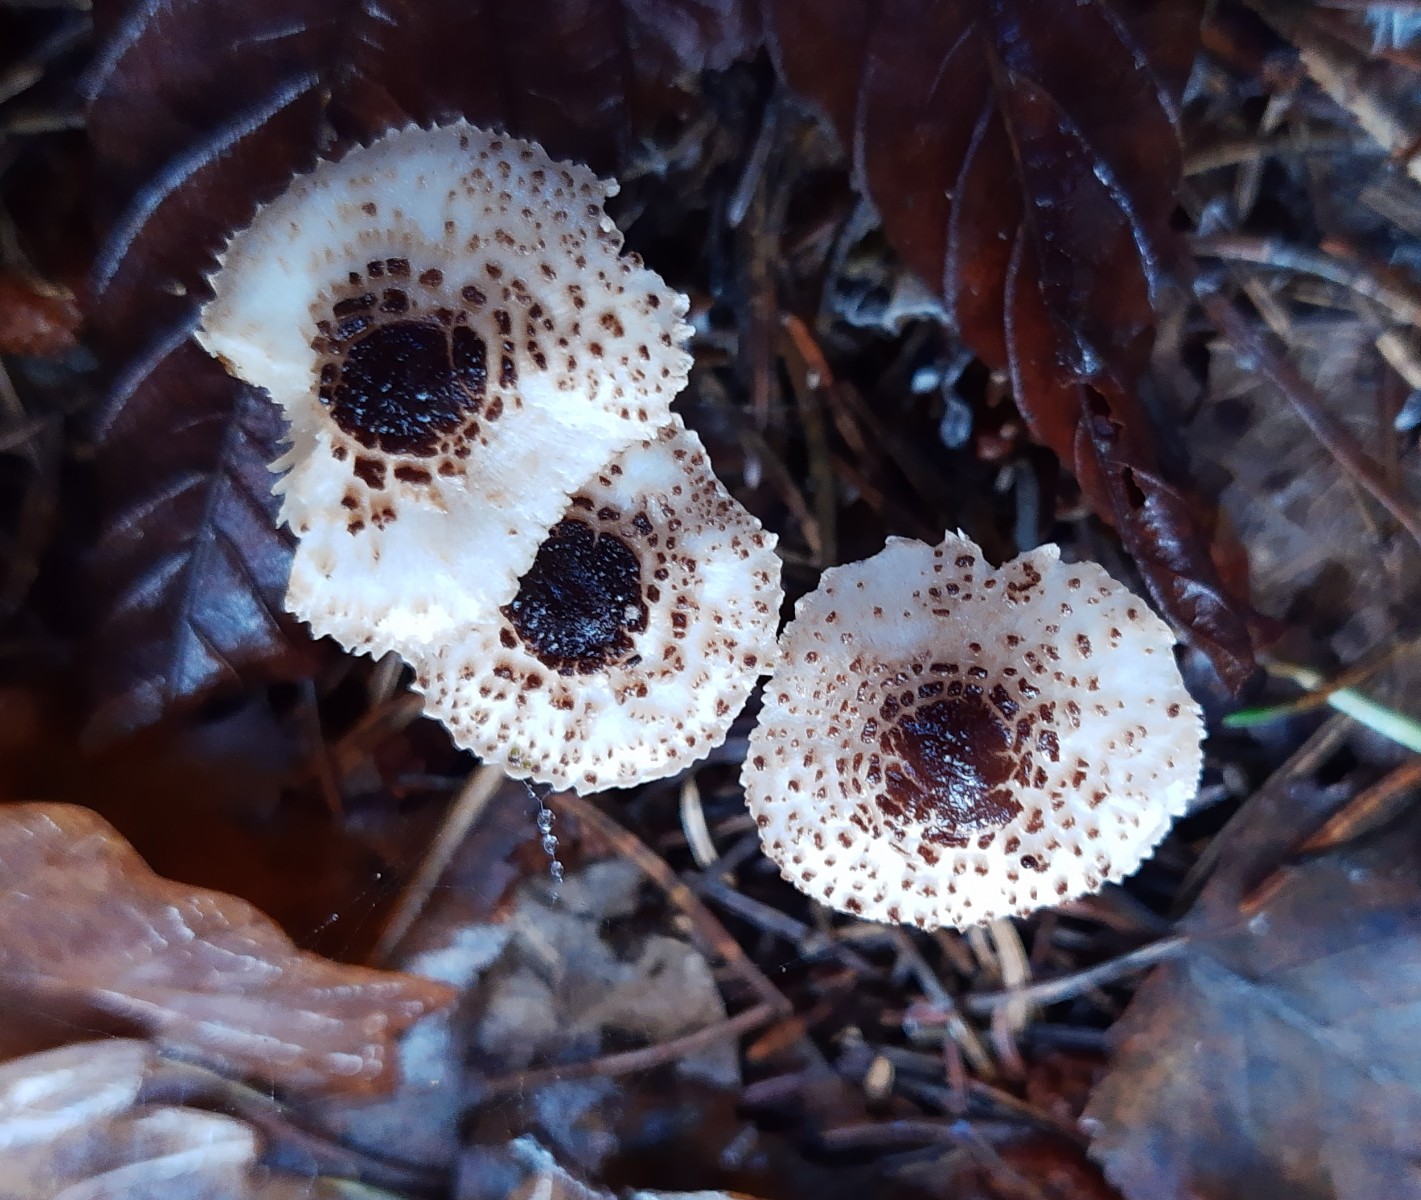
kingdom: Fungi
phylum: Basidiomycota
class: Agaricomycetes
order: Agaricales
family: Agaricaceae
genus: Lepiota
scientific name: Lepiota felina
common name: sortskællet parasolhat
